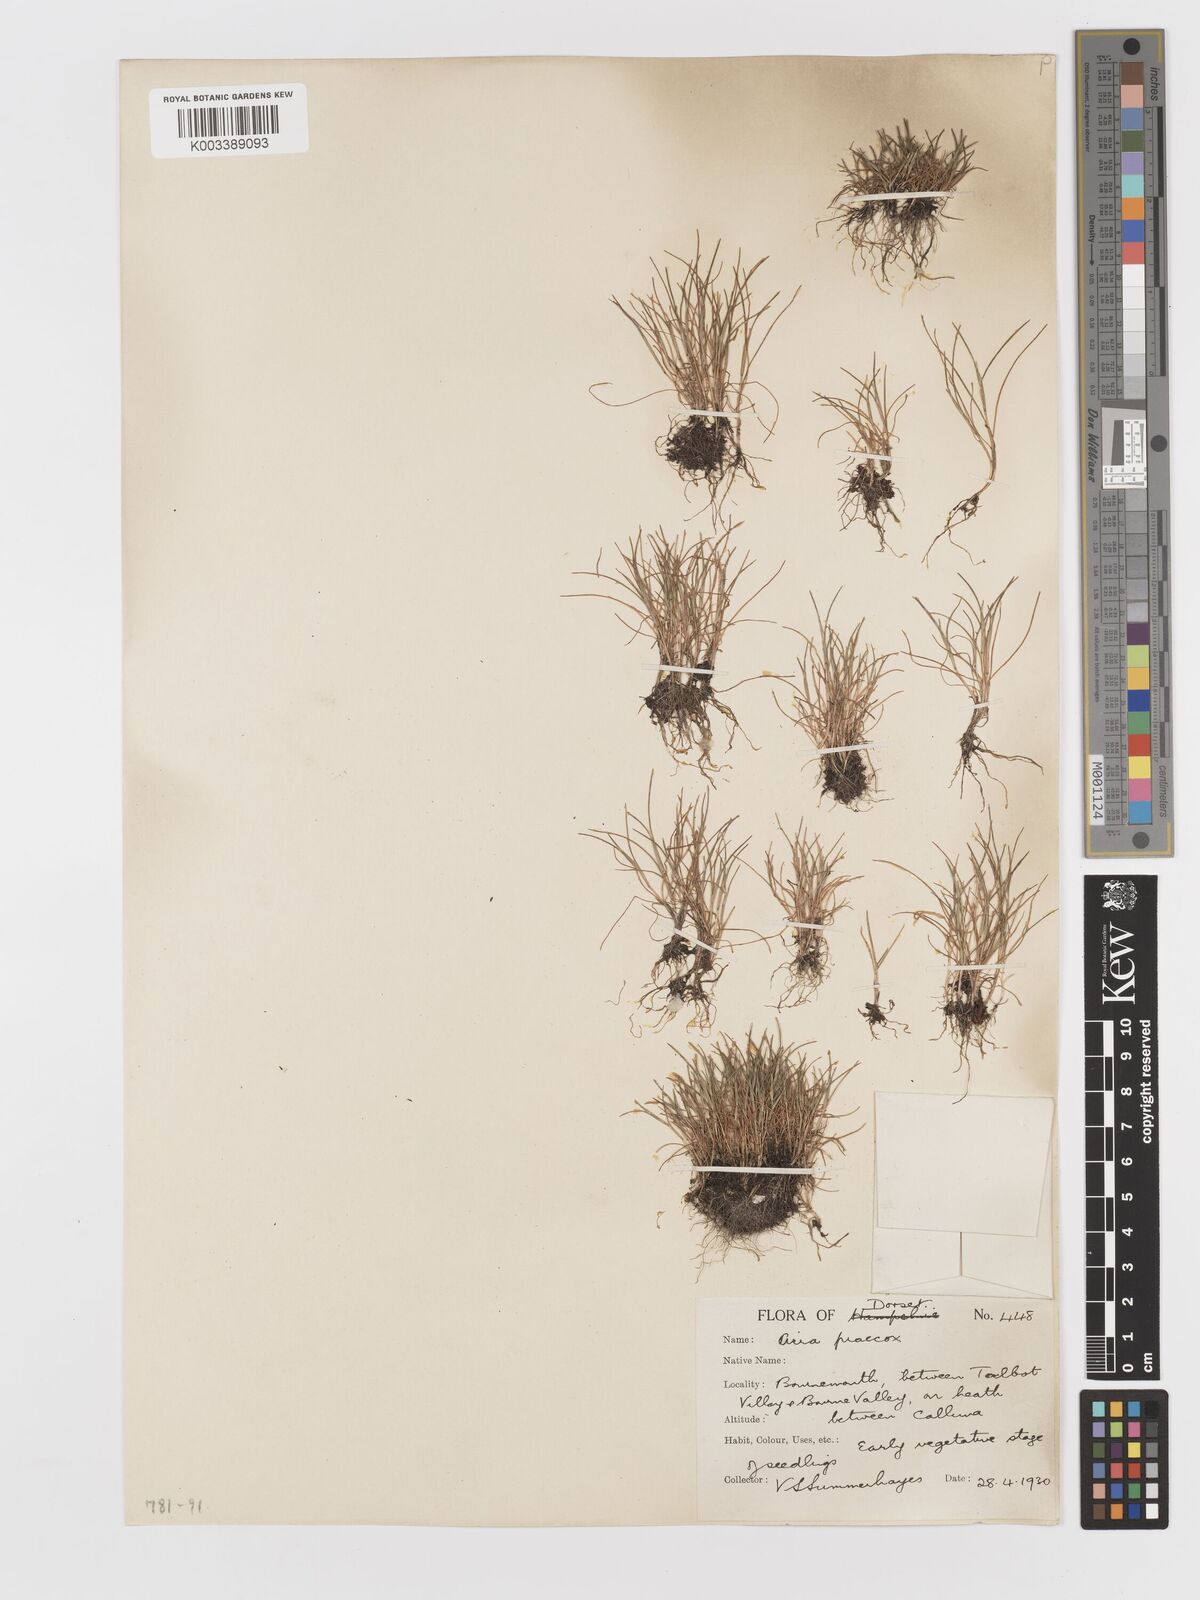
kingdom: Plantae
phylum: Tracheophyta
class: Liliopsida
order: Poales
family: Poaceae
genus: Aira
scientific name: Aira praecox
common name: Early hair-grass
